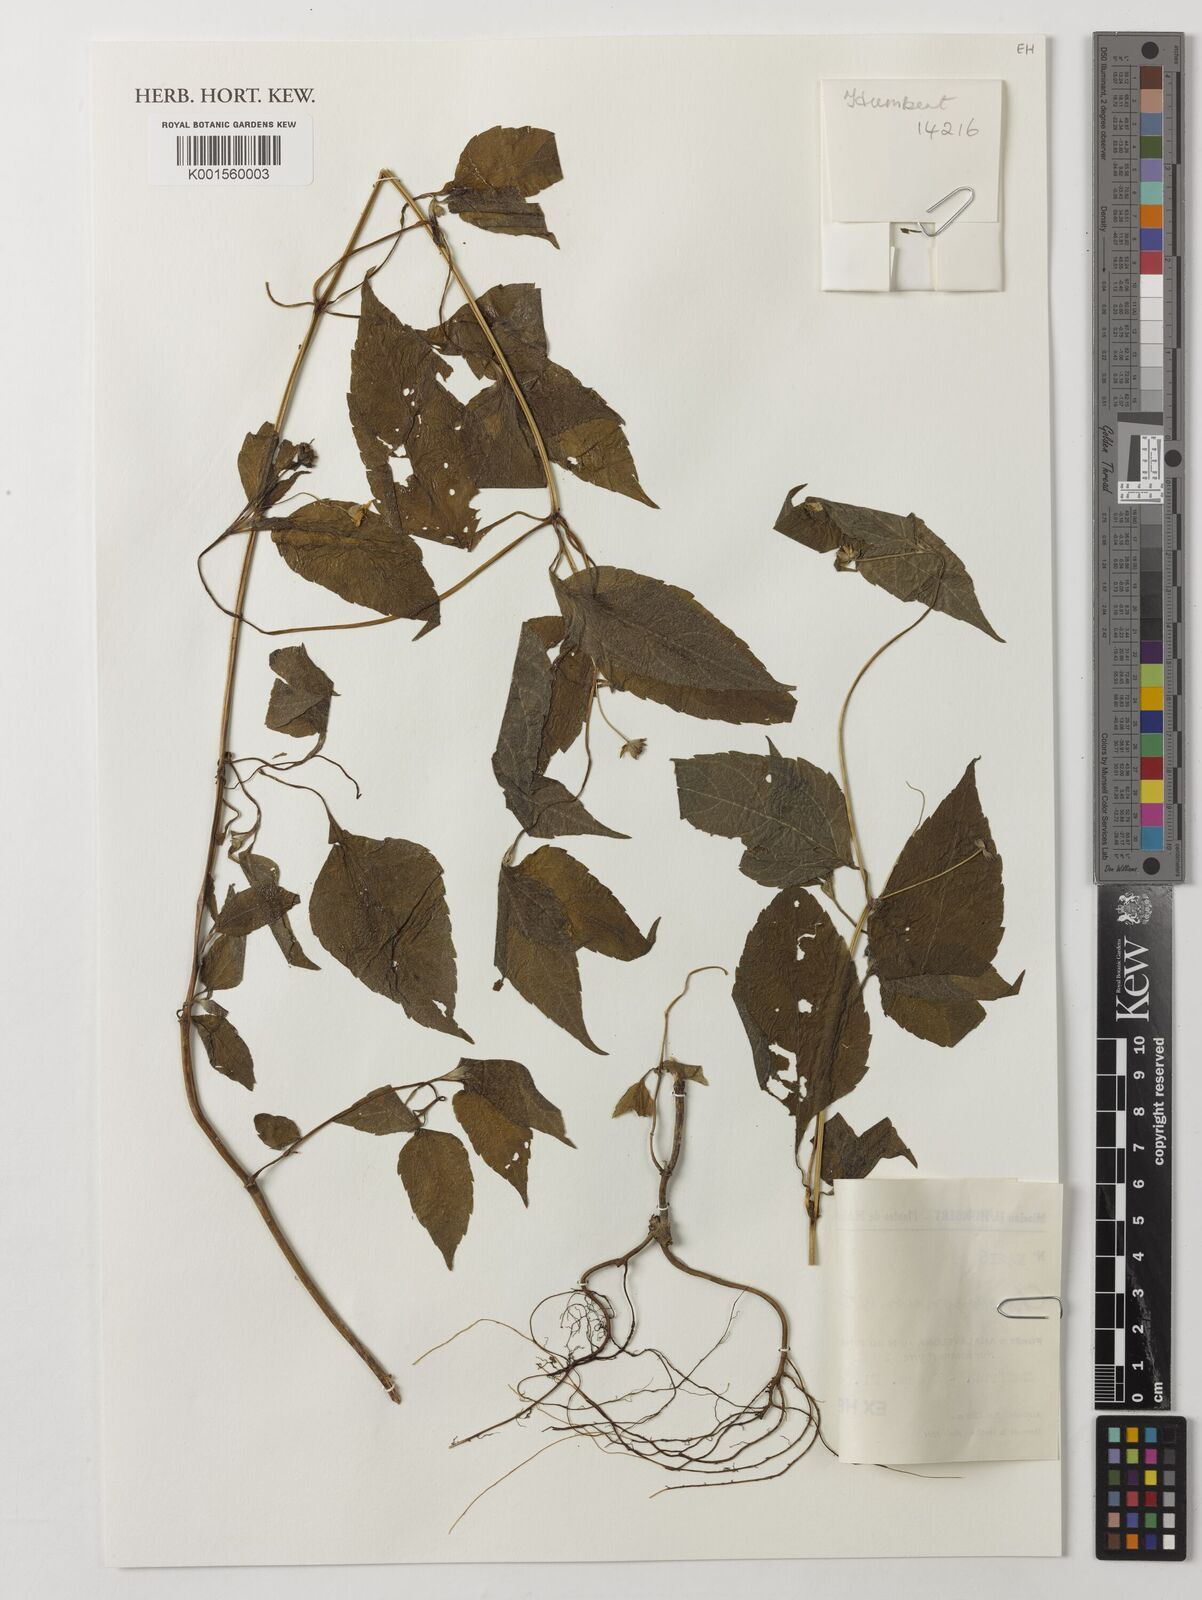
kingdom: Plantae
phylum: Tracheophyta
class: Magnoliopsida
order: Asterales
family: Asteraceae
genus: Aspilia
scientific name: Aspilia stenocephala
